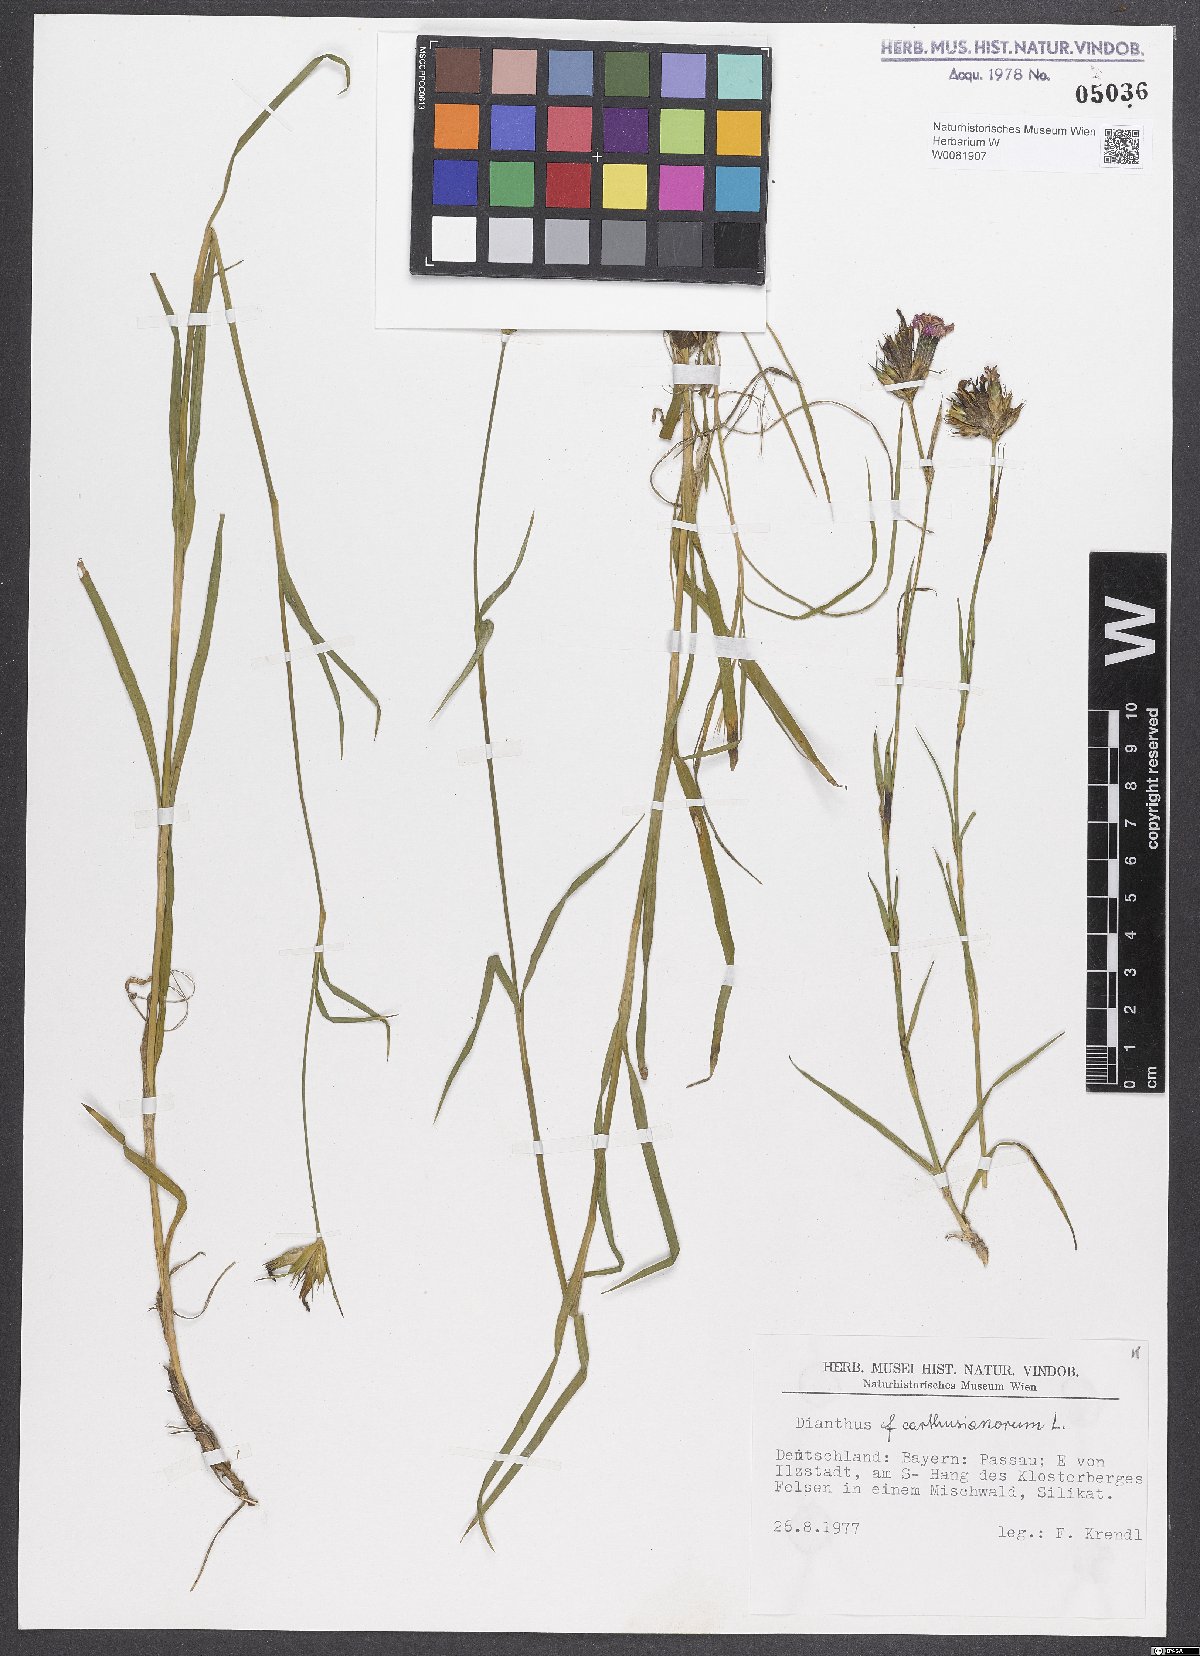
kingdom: Plantae
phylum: Tracheophyta
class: Magnoliopsida
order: Caryophyllales
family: Caryophyllaceae
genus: Dianthus
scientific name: Dianthus carthusianorum
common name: Carthusian pink
